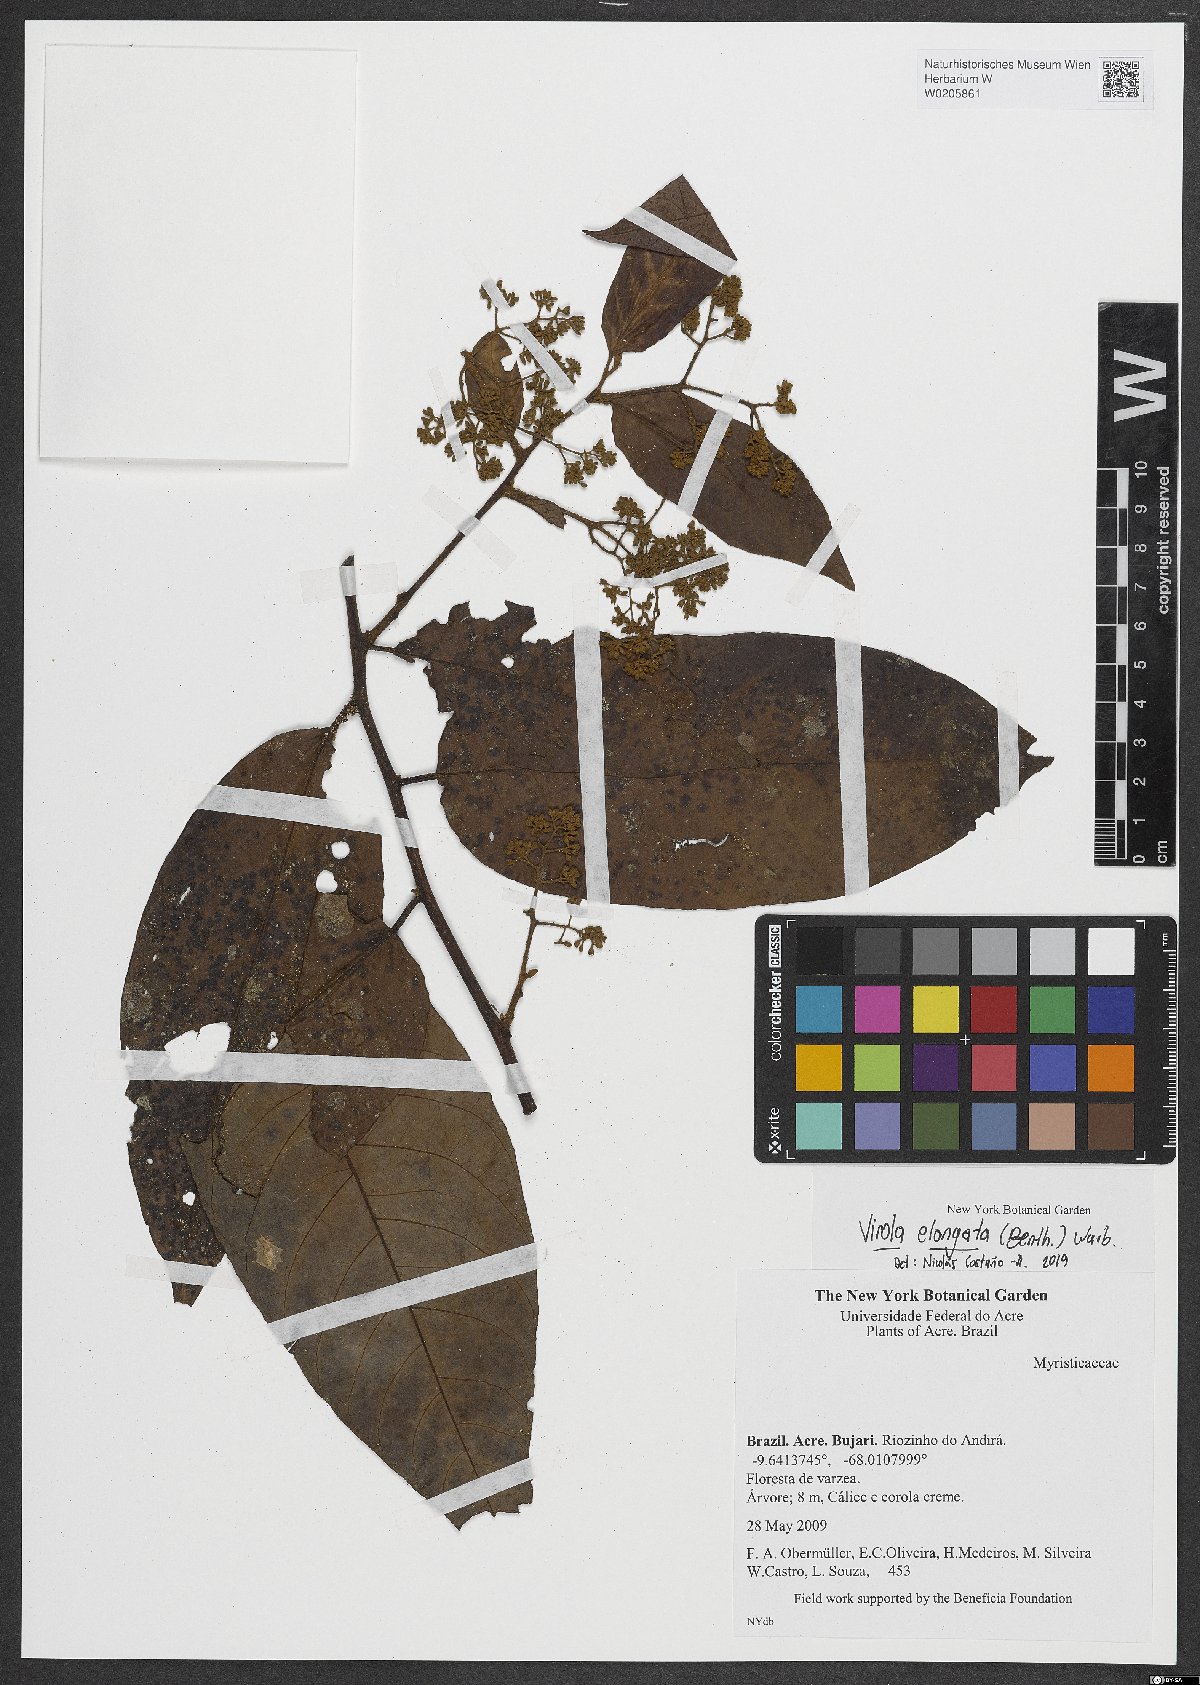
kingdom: Plantae
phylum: Tracheophyta
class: Magnoliopsida
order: Magnoliales
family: Myristicaceae
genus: Virola
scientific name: Virola elongata
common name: Sacred virola
